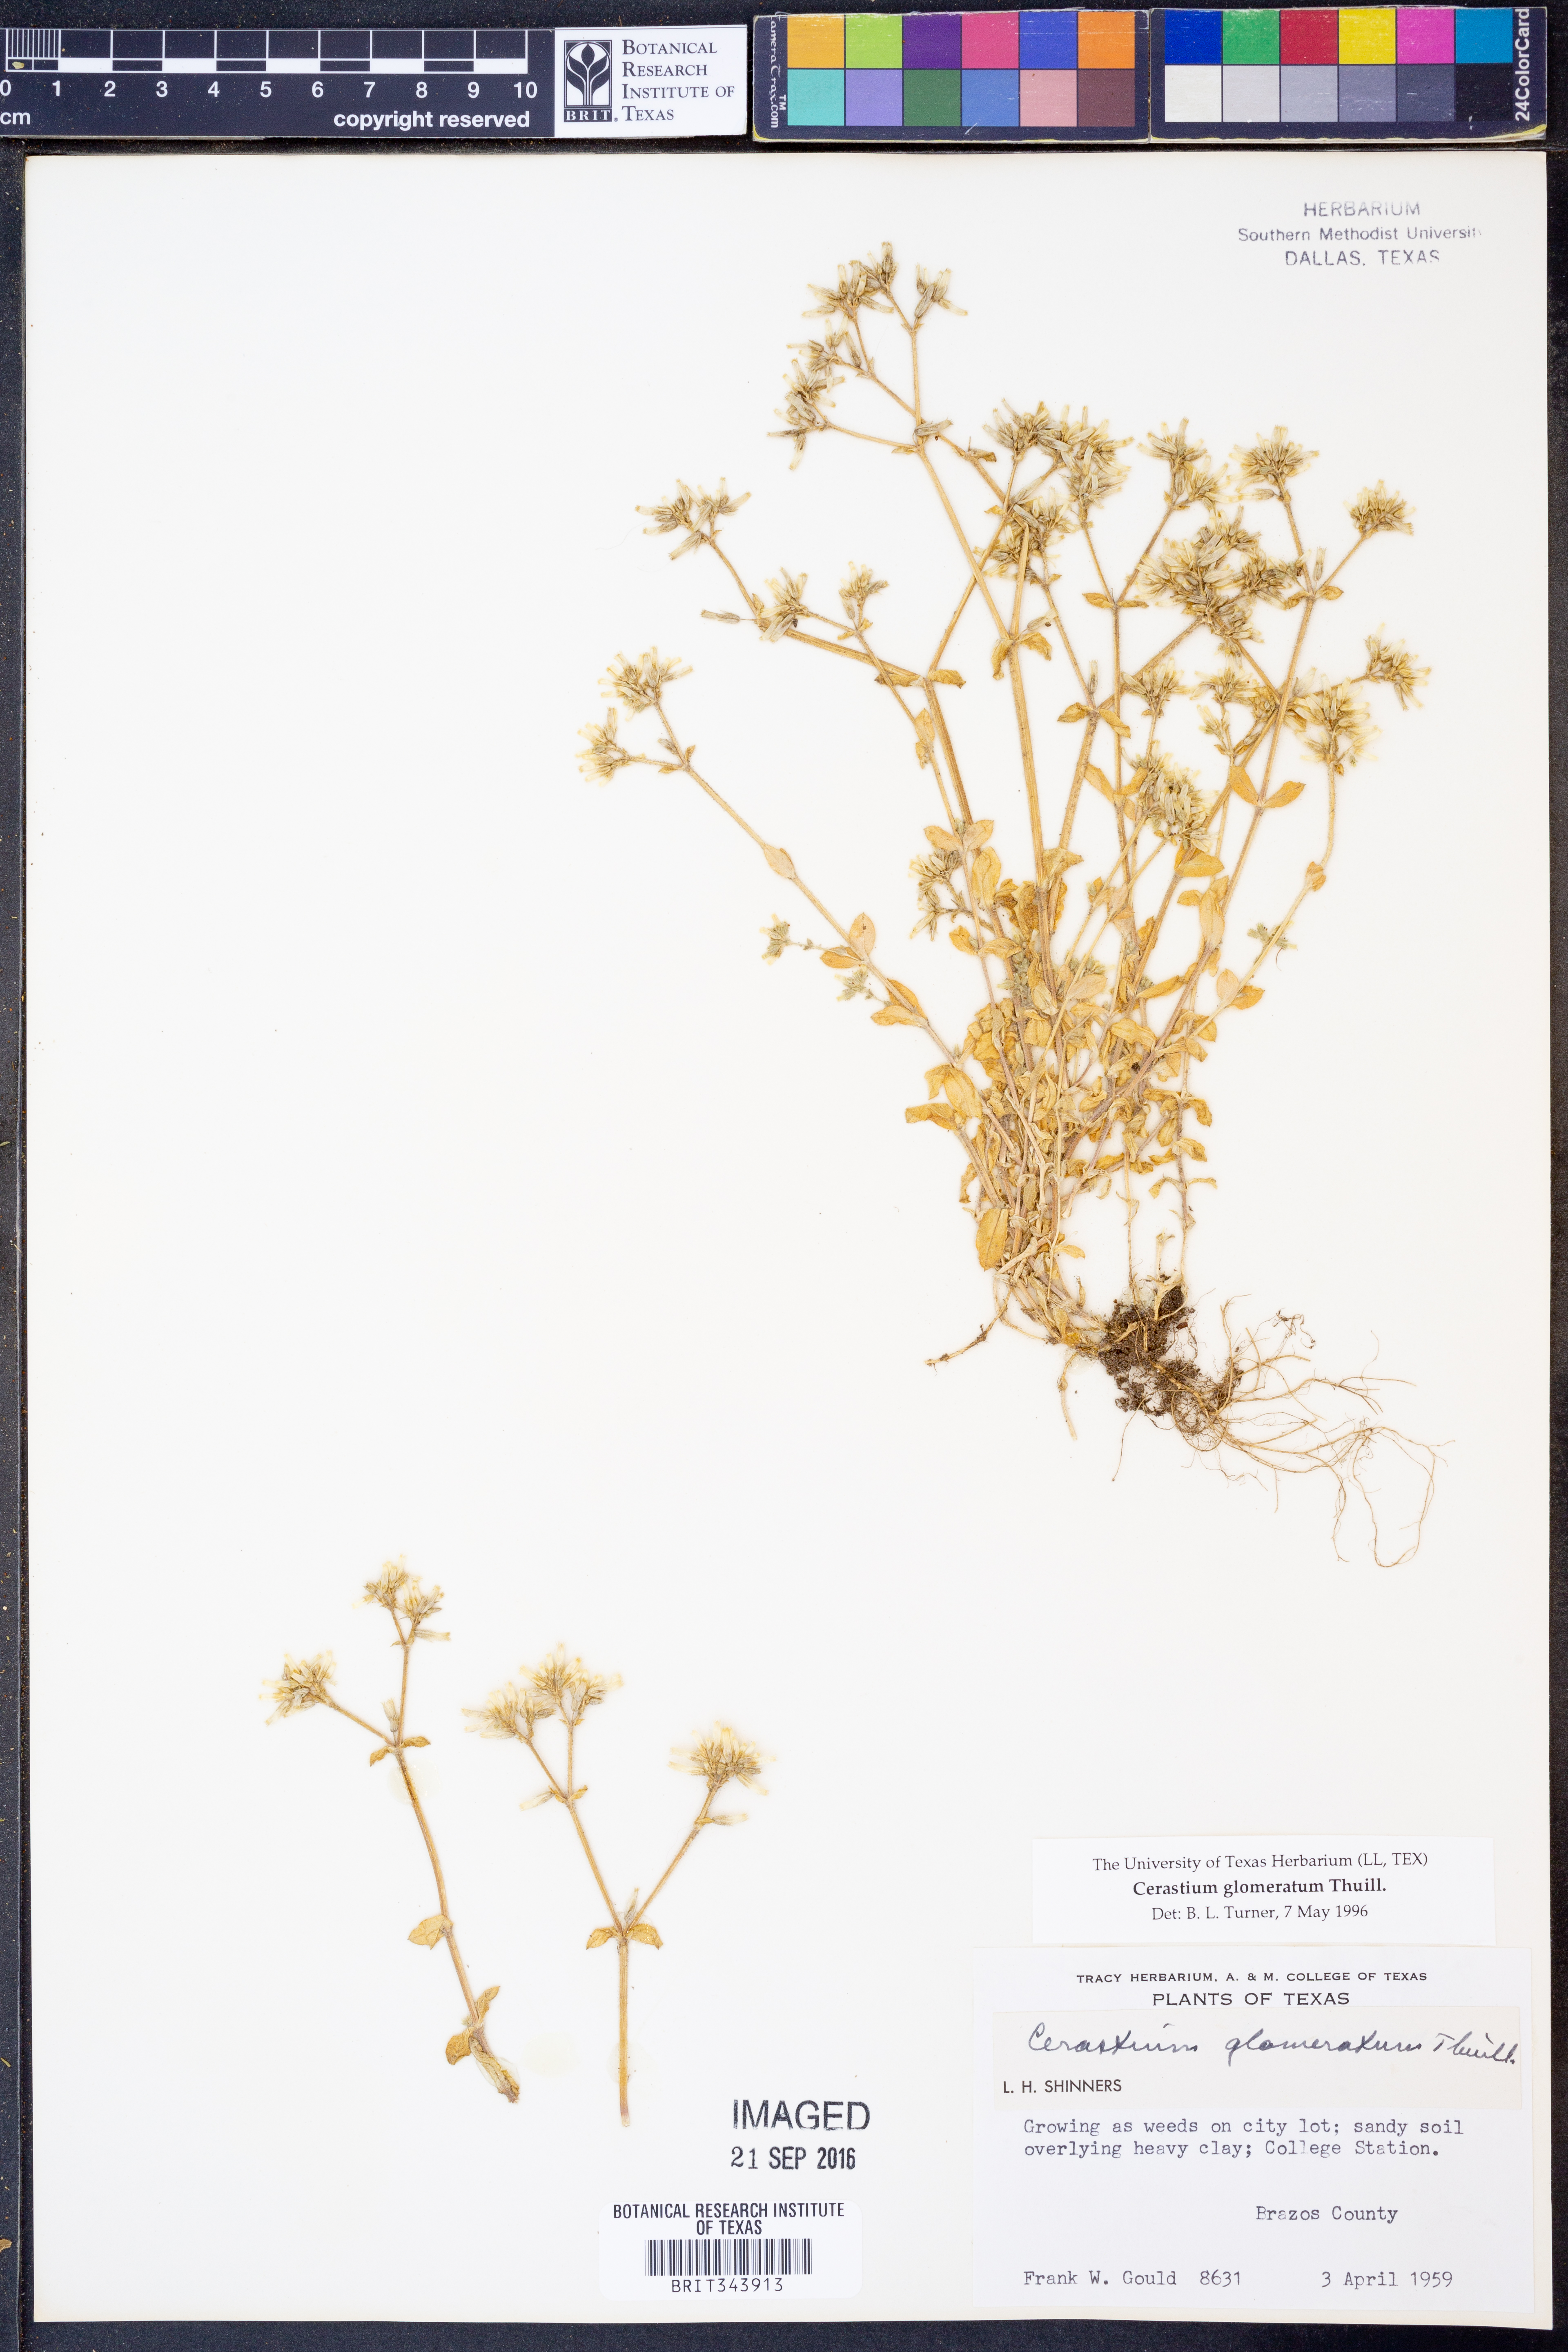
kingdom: Plantae
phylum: Tracheophyta
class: Magnoliopsida
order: Caryophyllales
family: Caryophyllaceae
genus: Cerastium
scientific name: Cerastium glomeratum
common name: Sticky chickweed
